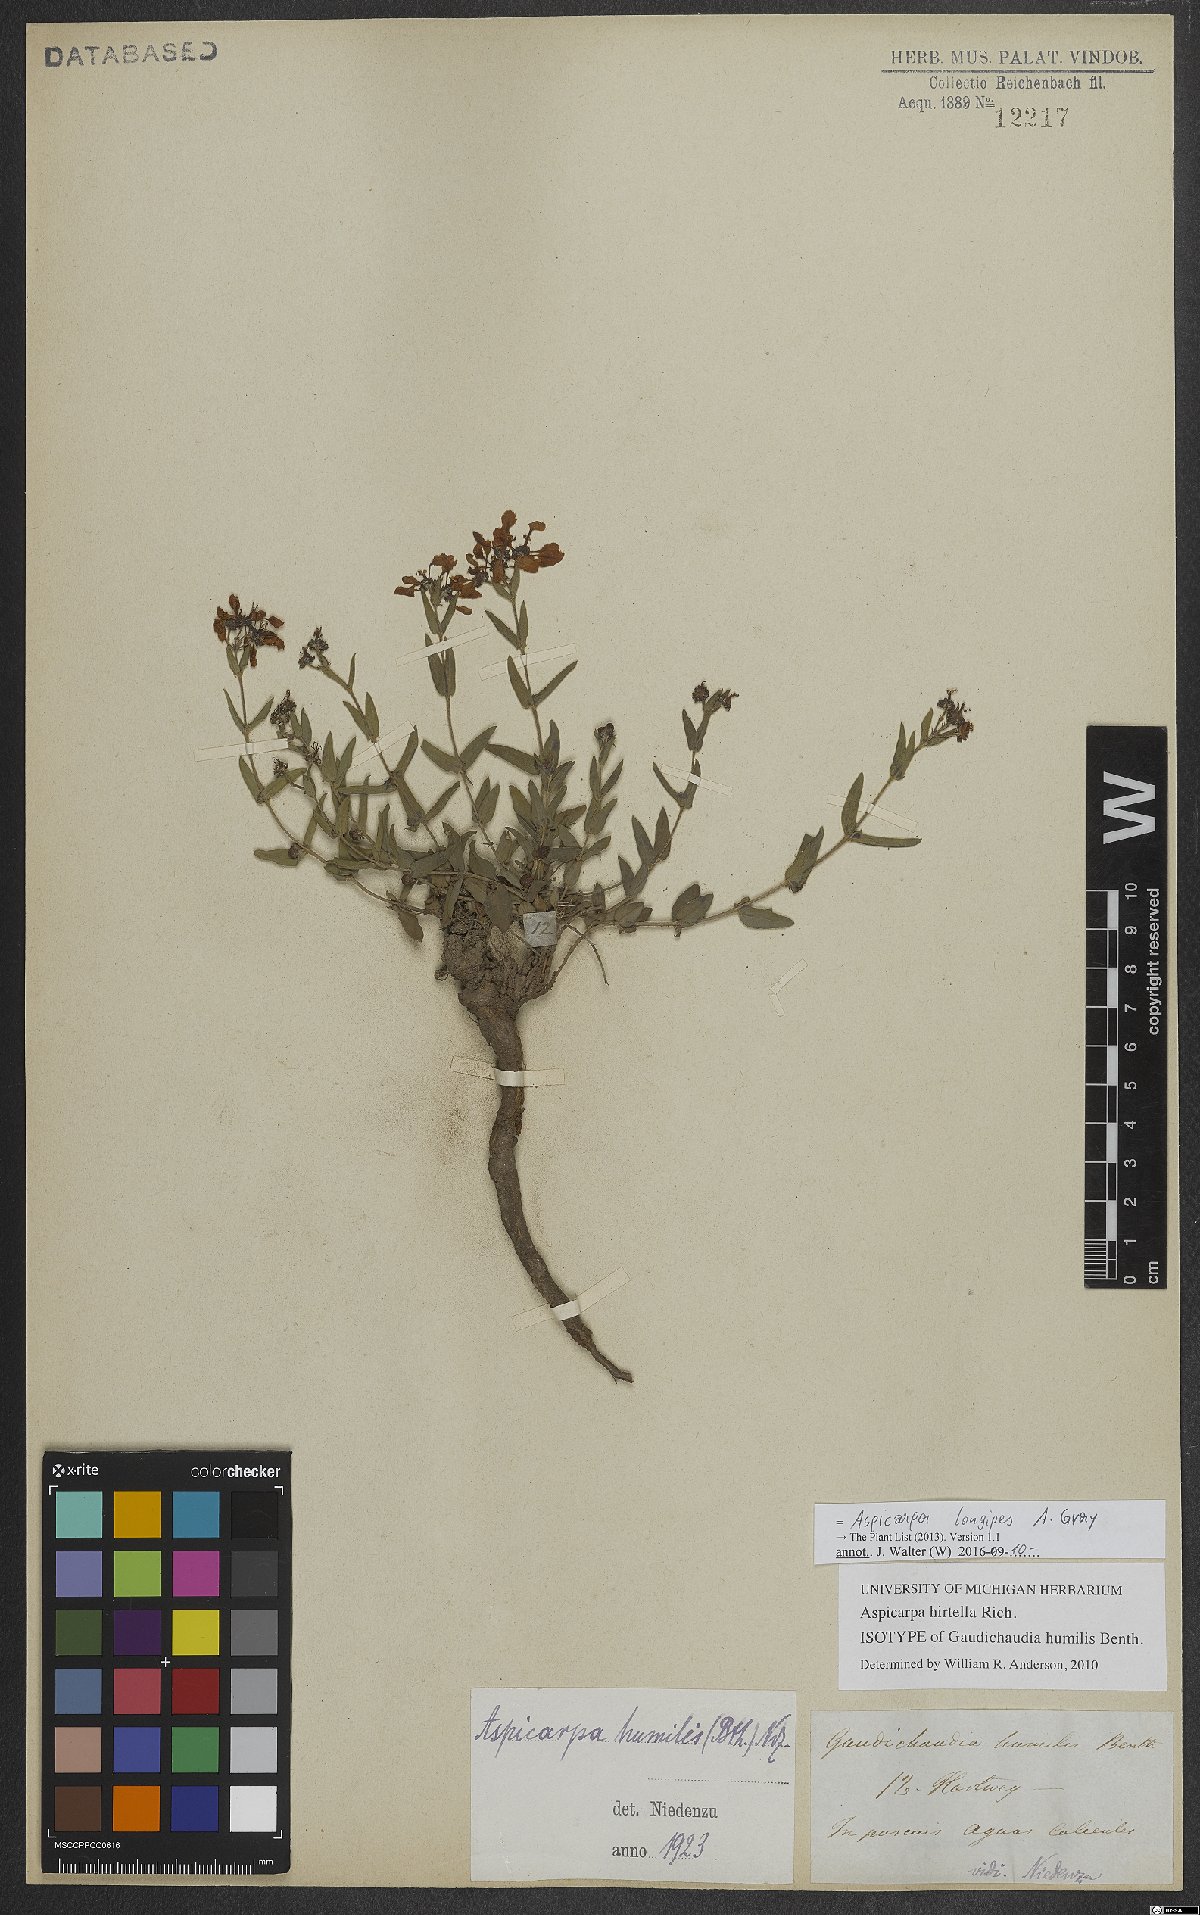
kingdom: Plantae
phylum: Tracheophyta
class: Magnoliopsida
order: Malpighiales
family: Malpighiaceae
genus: Aspicarpa
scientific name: Aspicarpa humilis
